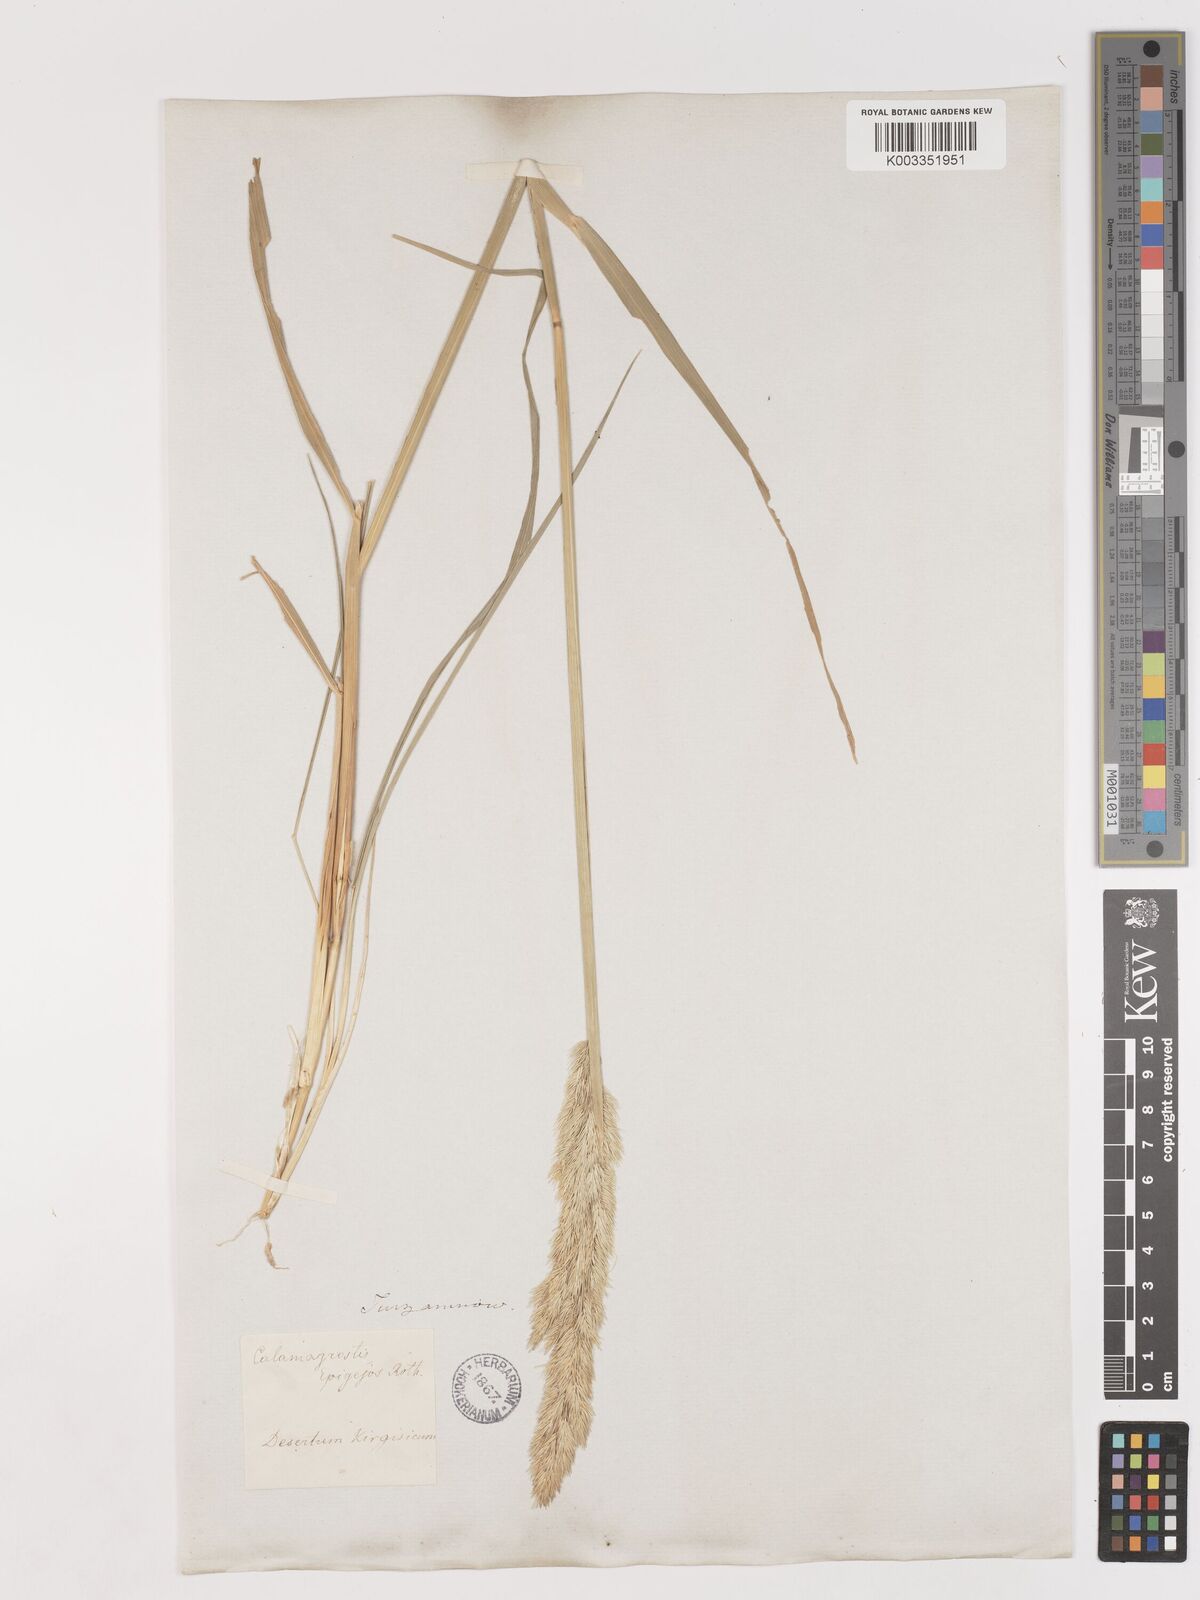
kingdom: Plantae
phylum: Tracheophyta
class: Liliopsida
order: Poales
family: Poaceae
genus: Calamagrostis
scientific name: Calamagrostis epigejos
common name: Wood small-reed
